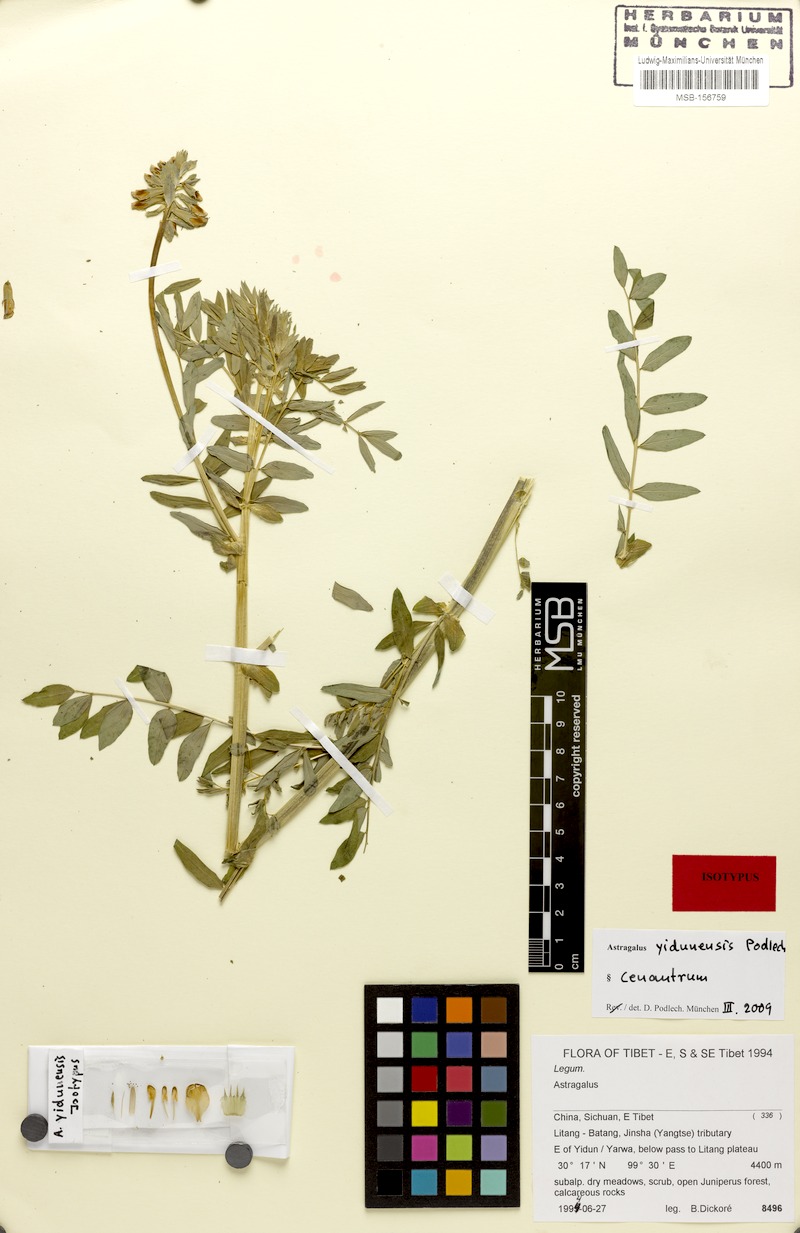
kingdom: Plantae
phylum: Tracheophyta
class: Magnoliopsida
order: Fabales
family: Fabaceae
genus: Astragalus
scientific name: Astragalus yidunensis
